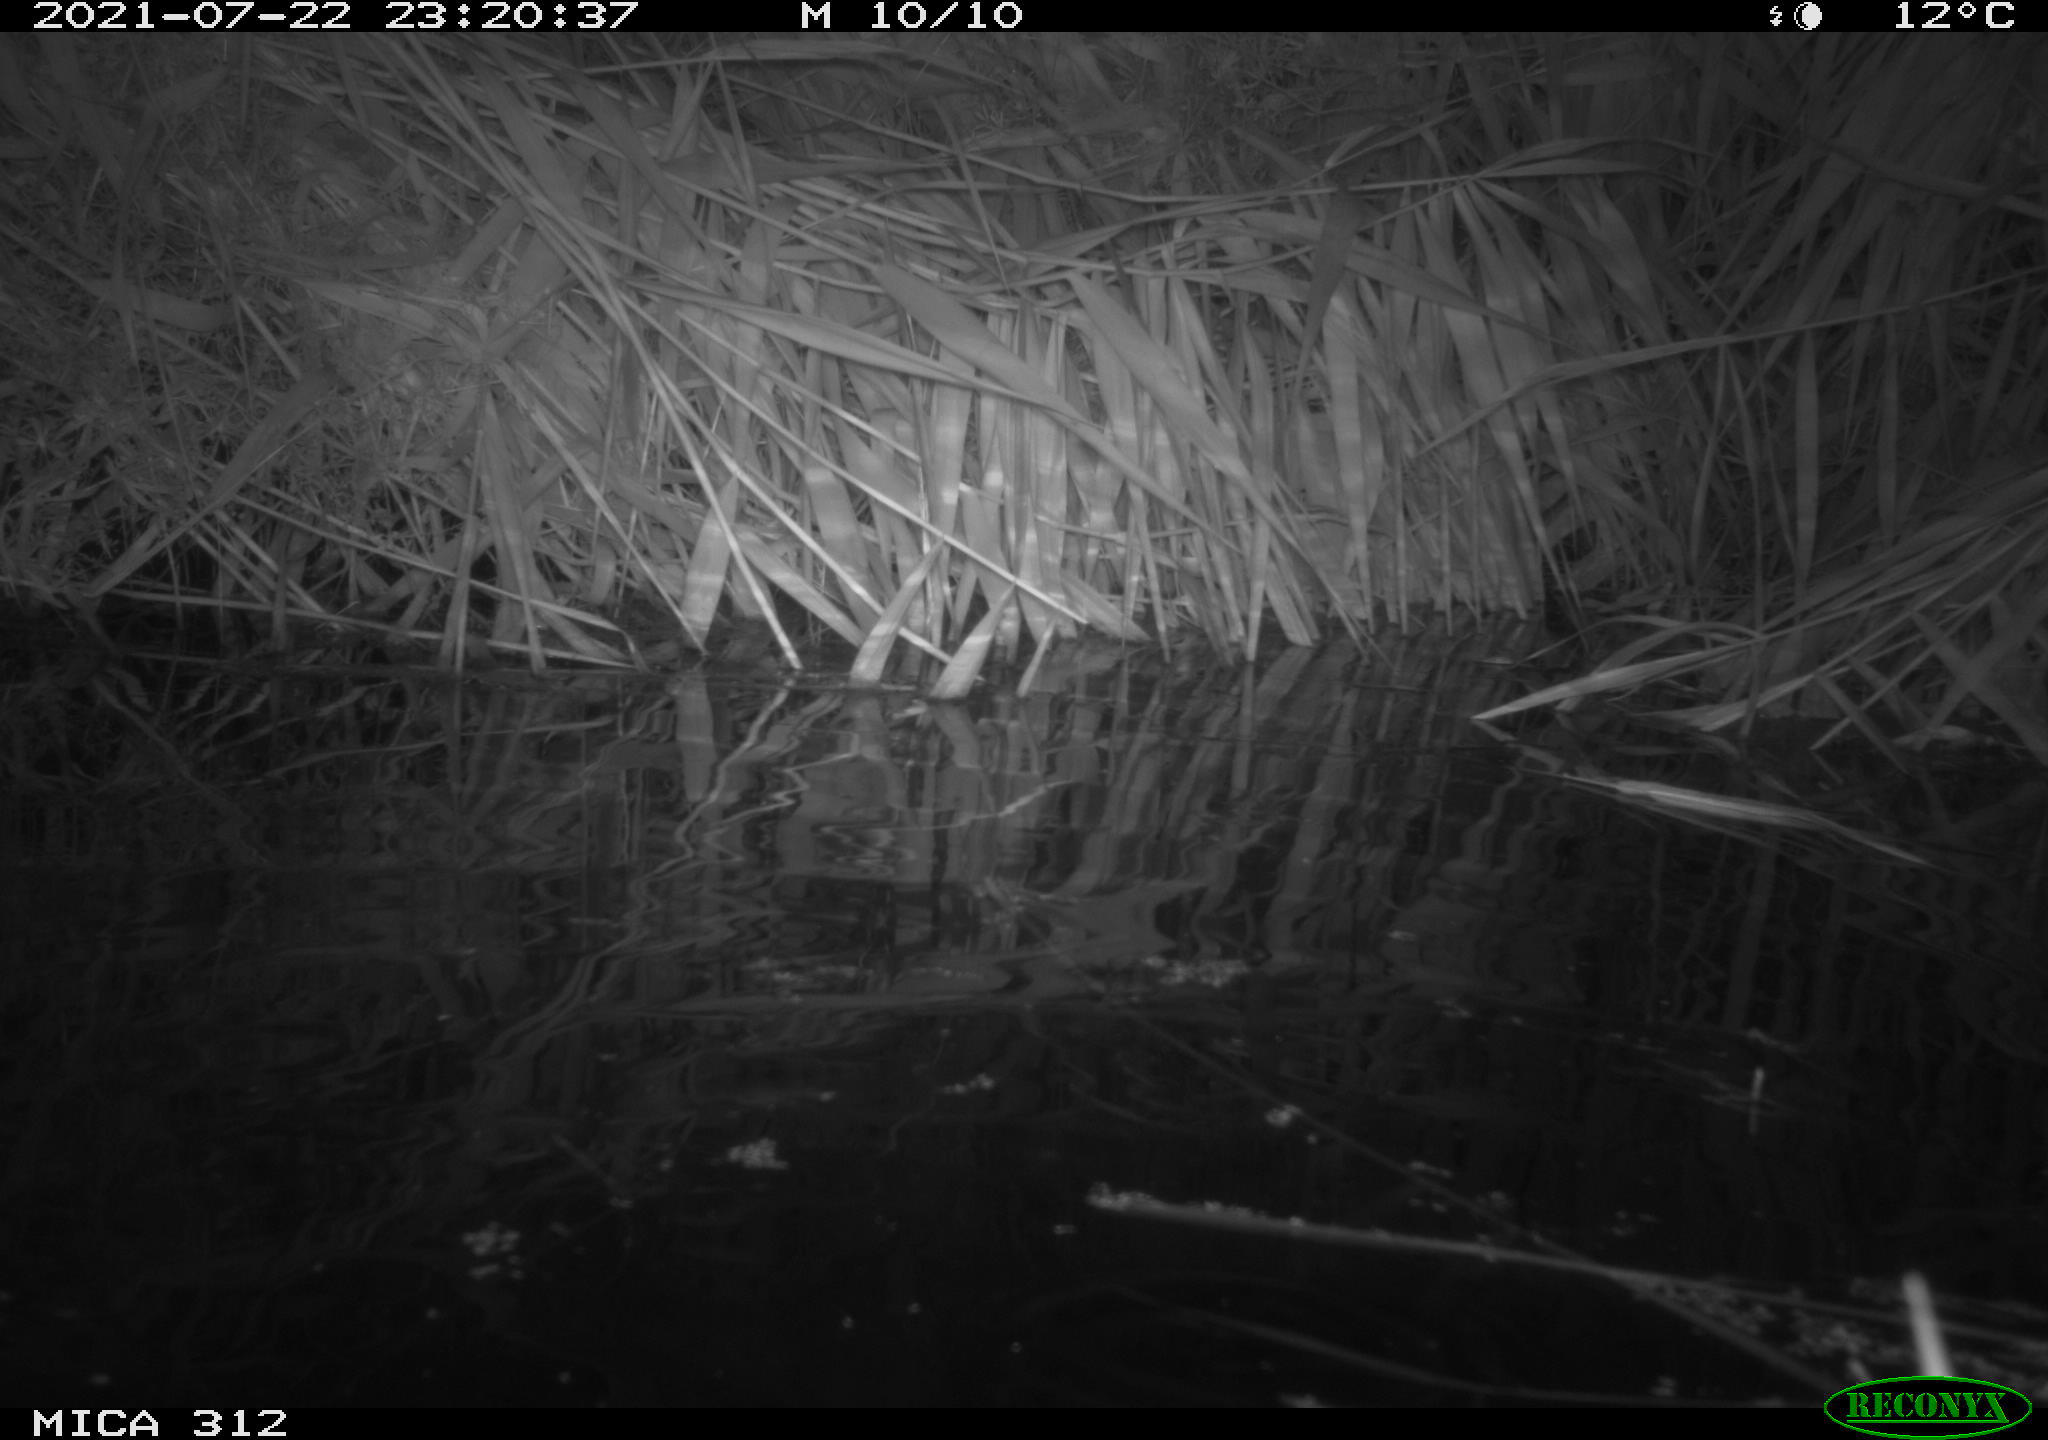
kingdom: Animalia
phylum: Chordata
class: Mammalia
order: Rodentia
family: Muridae
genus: Rattus
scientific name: Rattus norvegicus
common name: Brown rat
